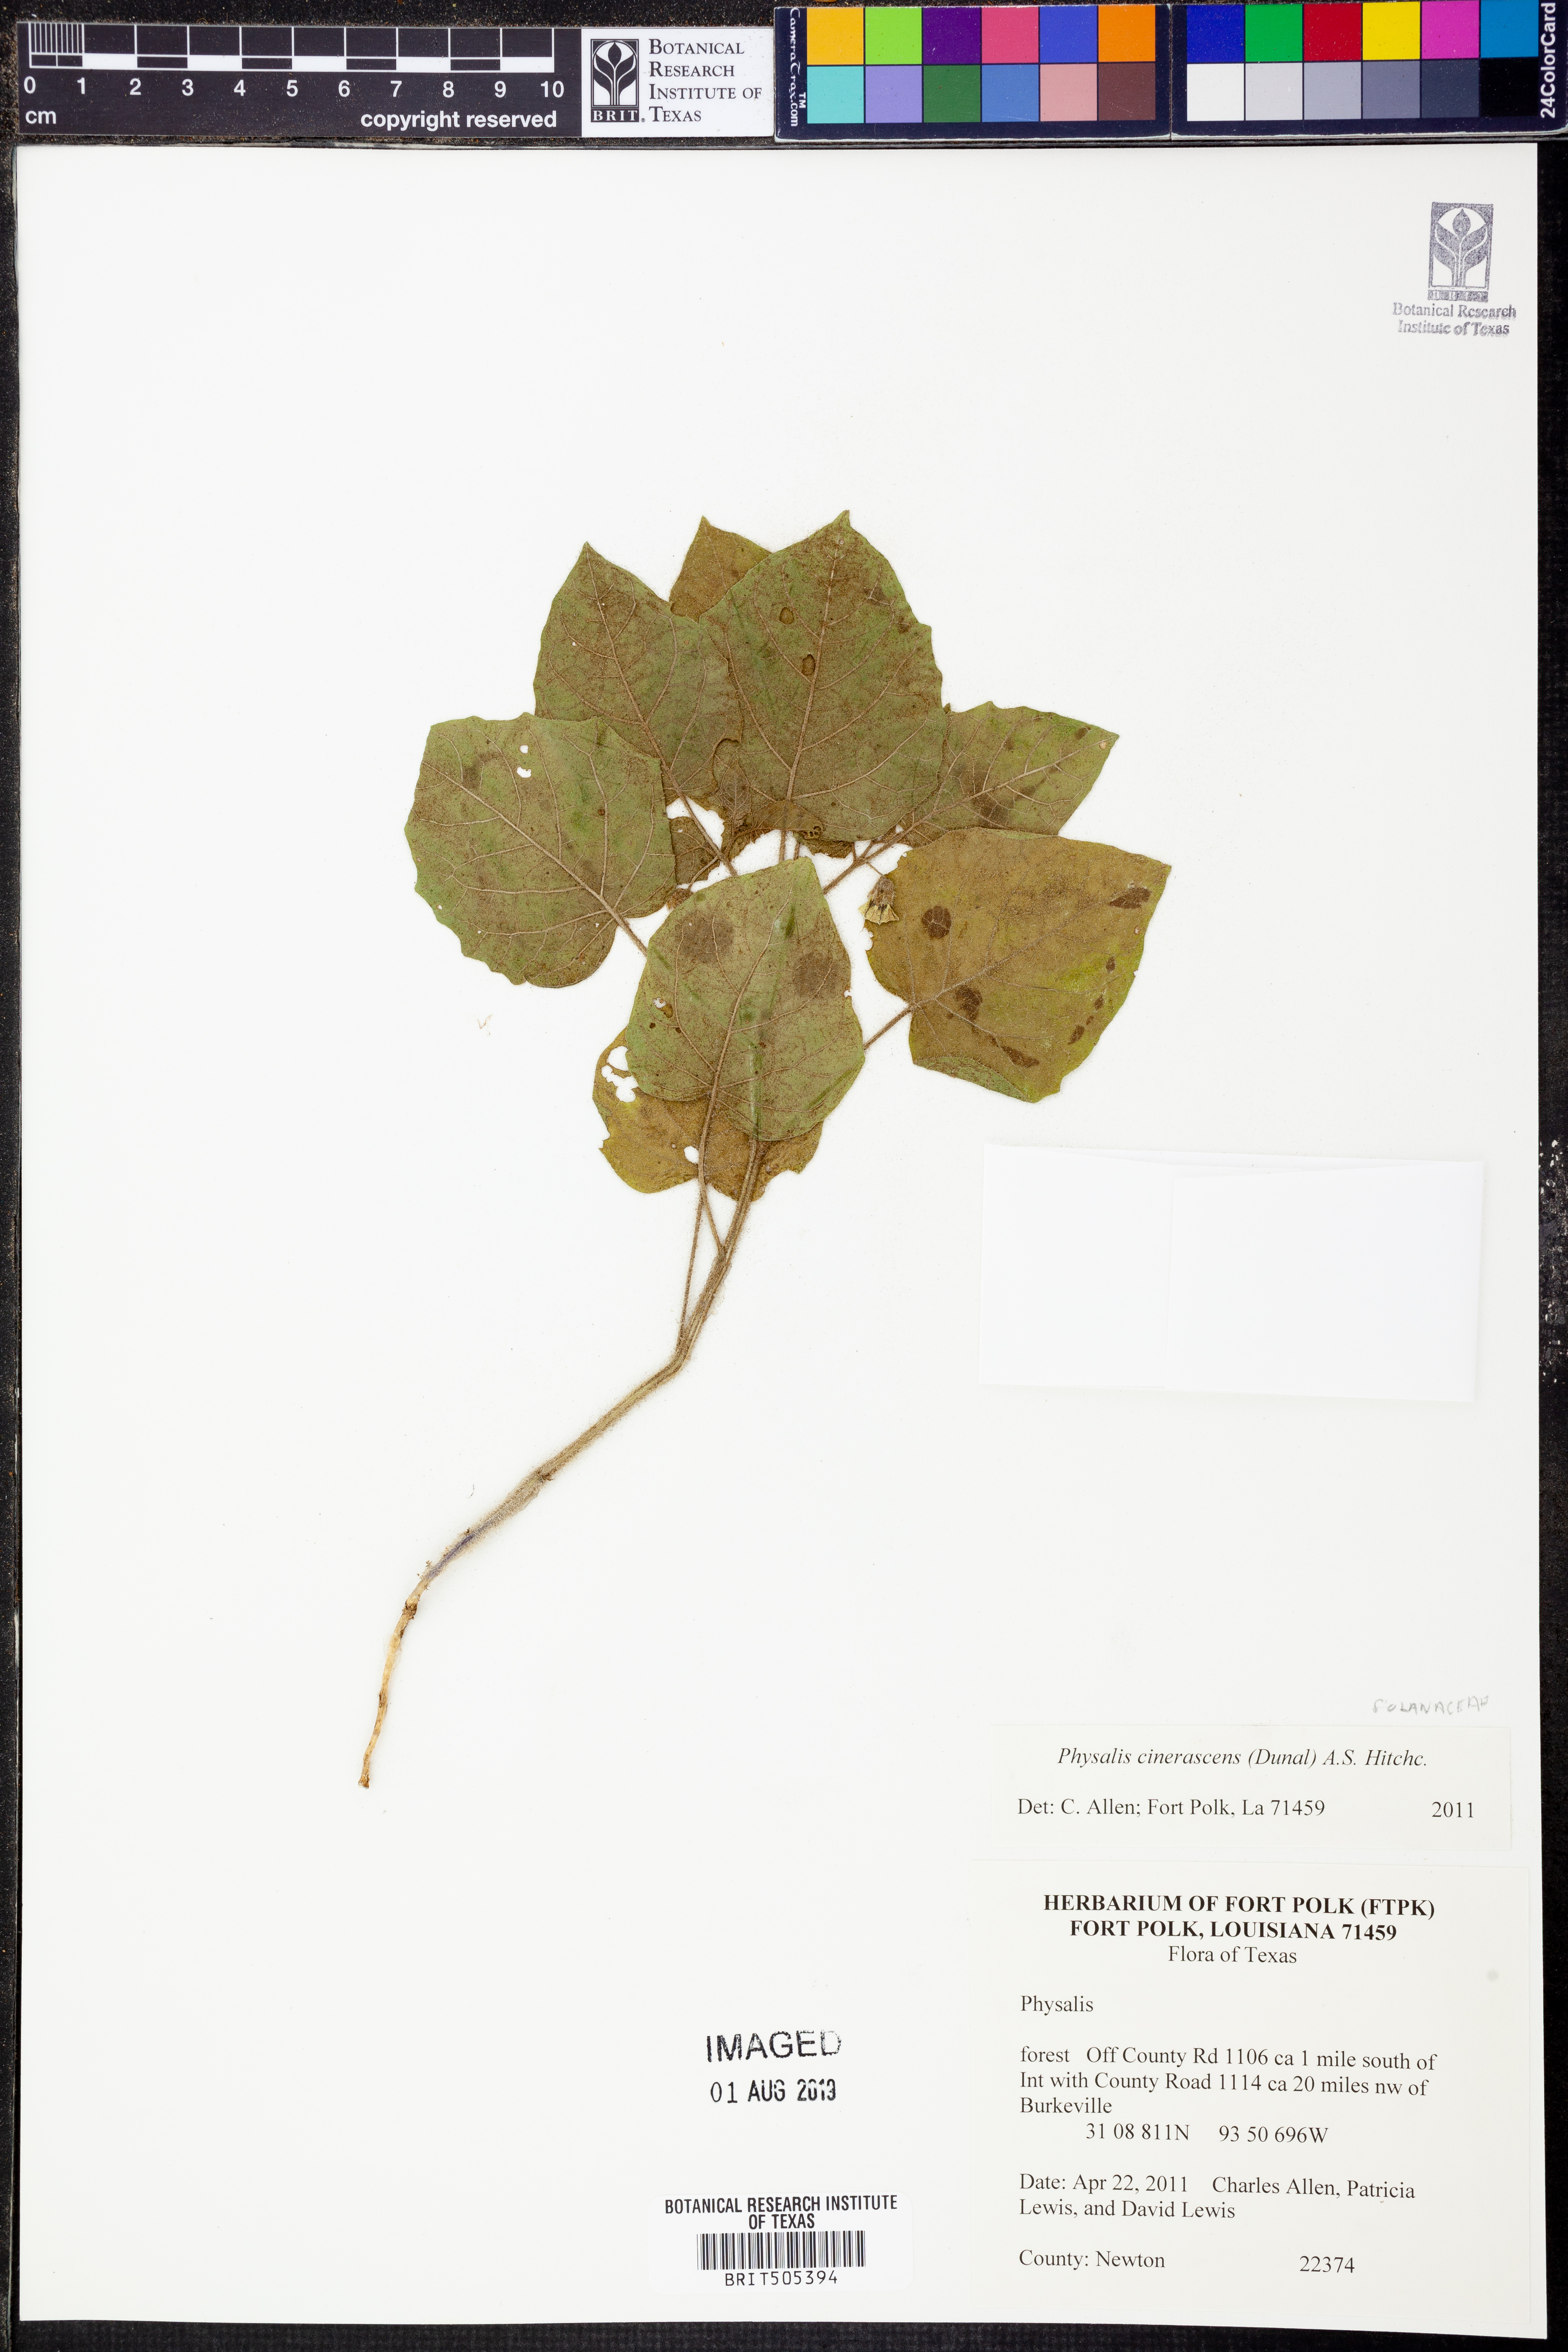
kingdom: Plantae
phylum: Tracheophyta
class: Magnoliopsida
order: Solanales
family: Solanaceae
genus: Physalis
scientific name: Physalis cinerascens
